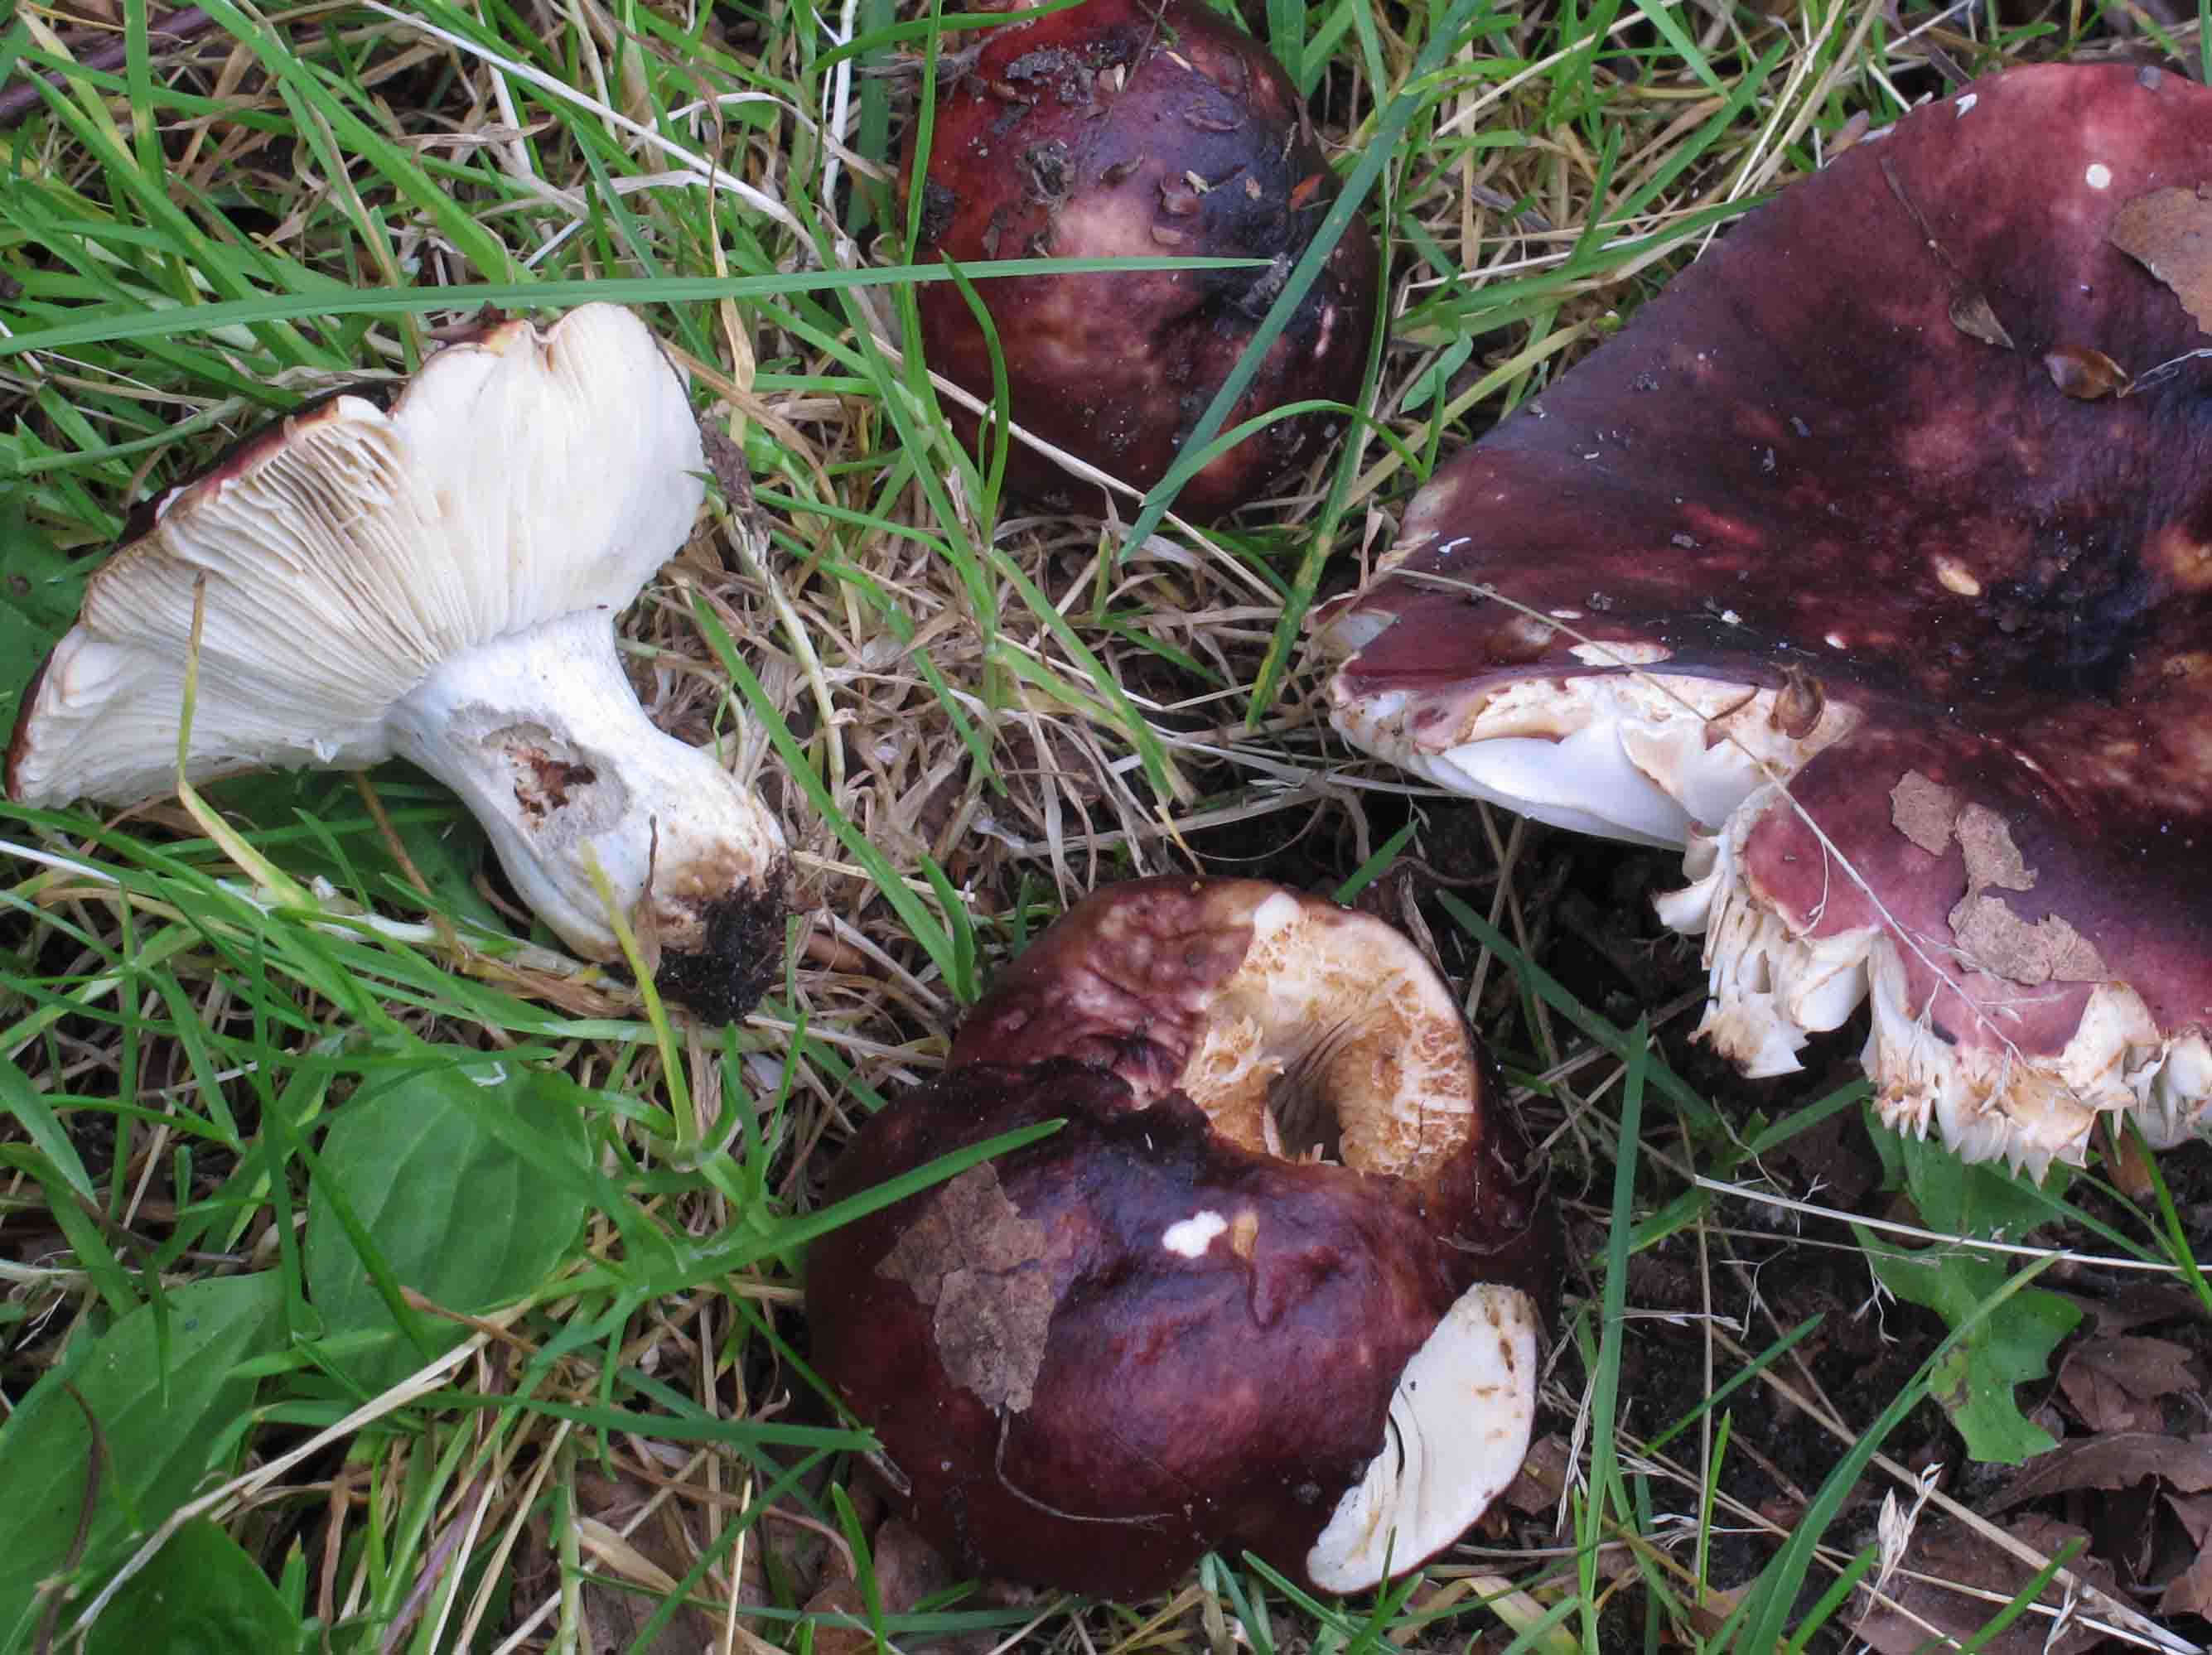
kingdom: Fungi
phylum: Basidiomycota
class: Agaricomycetes
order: Russulales
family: Russulaceae
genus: Russula
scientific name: Russula atropurpurea
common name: purpurbroget skørhat
